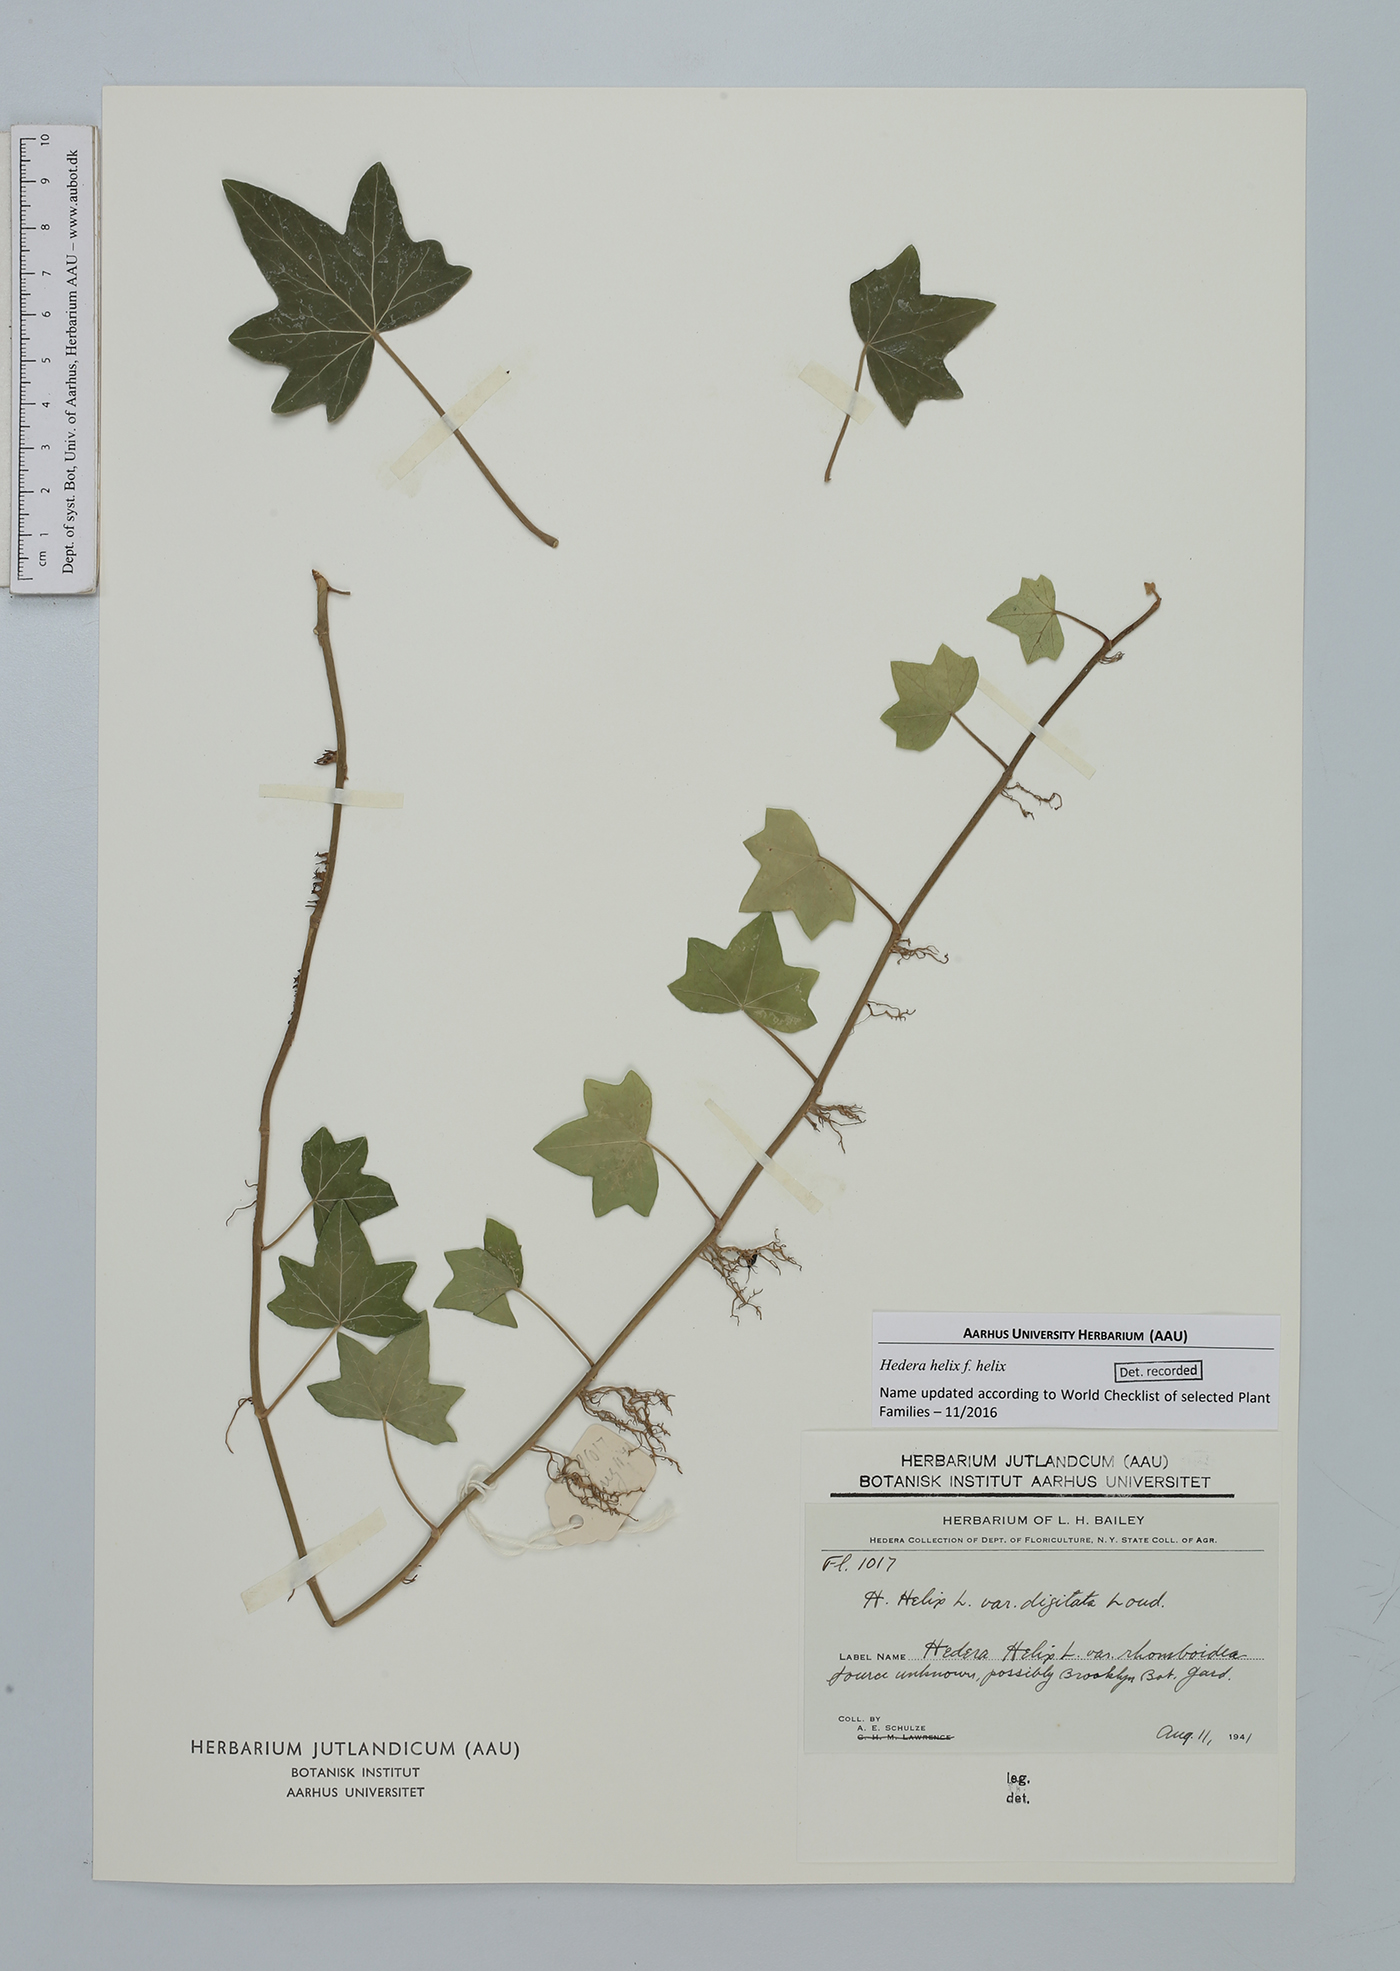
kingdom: Plantae
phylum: Tracheophyta
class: Magnoliopsida
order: Apiales
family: Araliaceae
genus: Hedera
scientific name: Hedera helix
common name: Ivy
